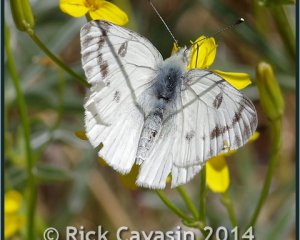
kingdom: Animalia
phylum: Arthropoda
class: Insecta
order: Lepidoptera
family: Pieridae
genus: Pontia
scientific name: Pontia protodice
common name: Checkered White
